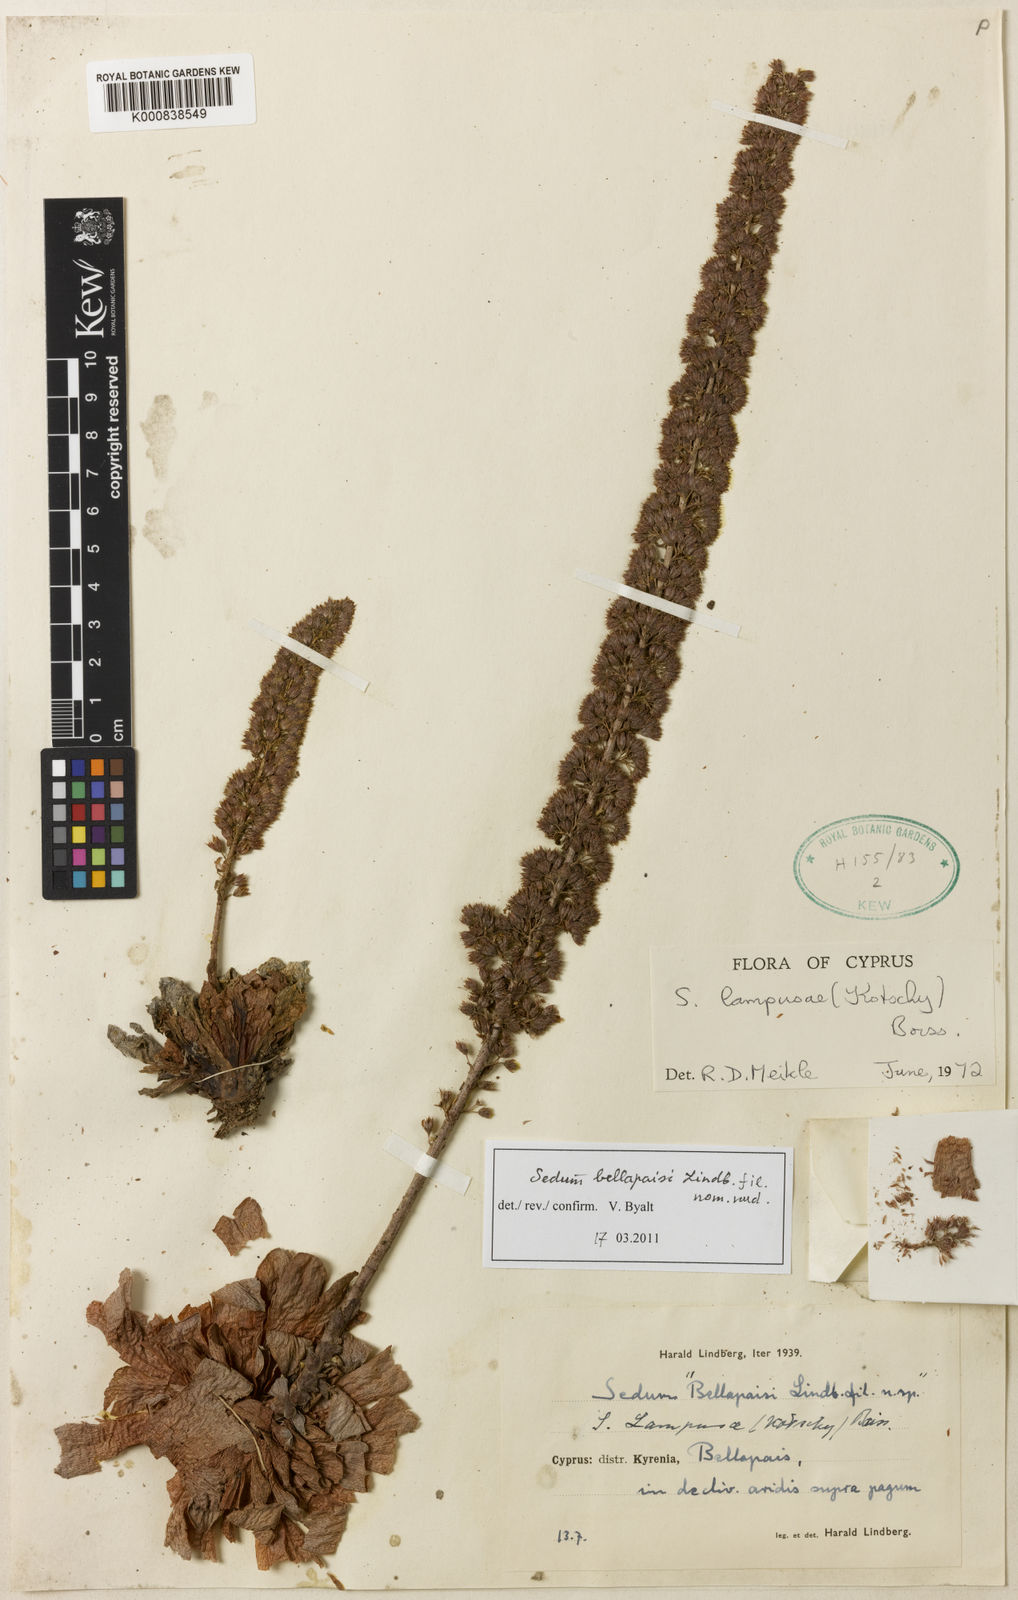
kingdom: Plantae
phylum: Tracheophyta
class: Magnoliopsida
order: Saxifragales
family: Crassulaceae
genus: Sedum
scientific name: Sedum lampusae
